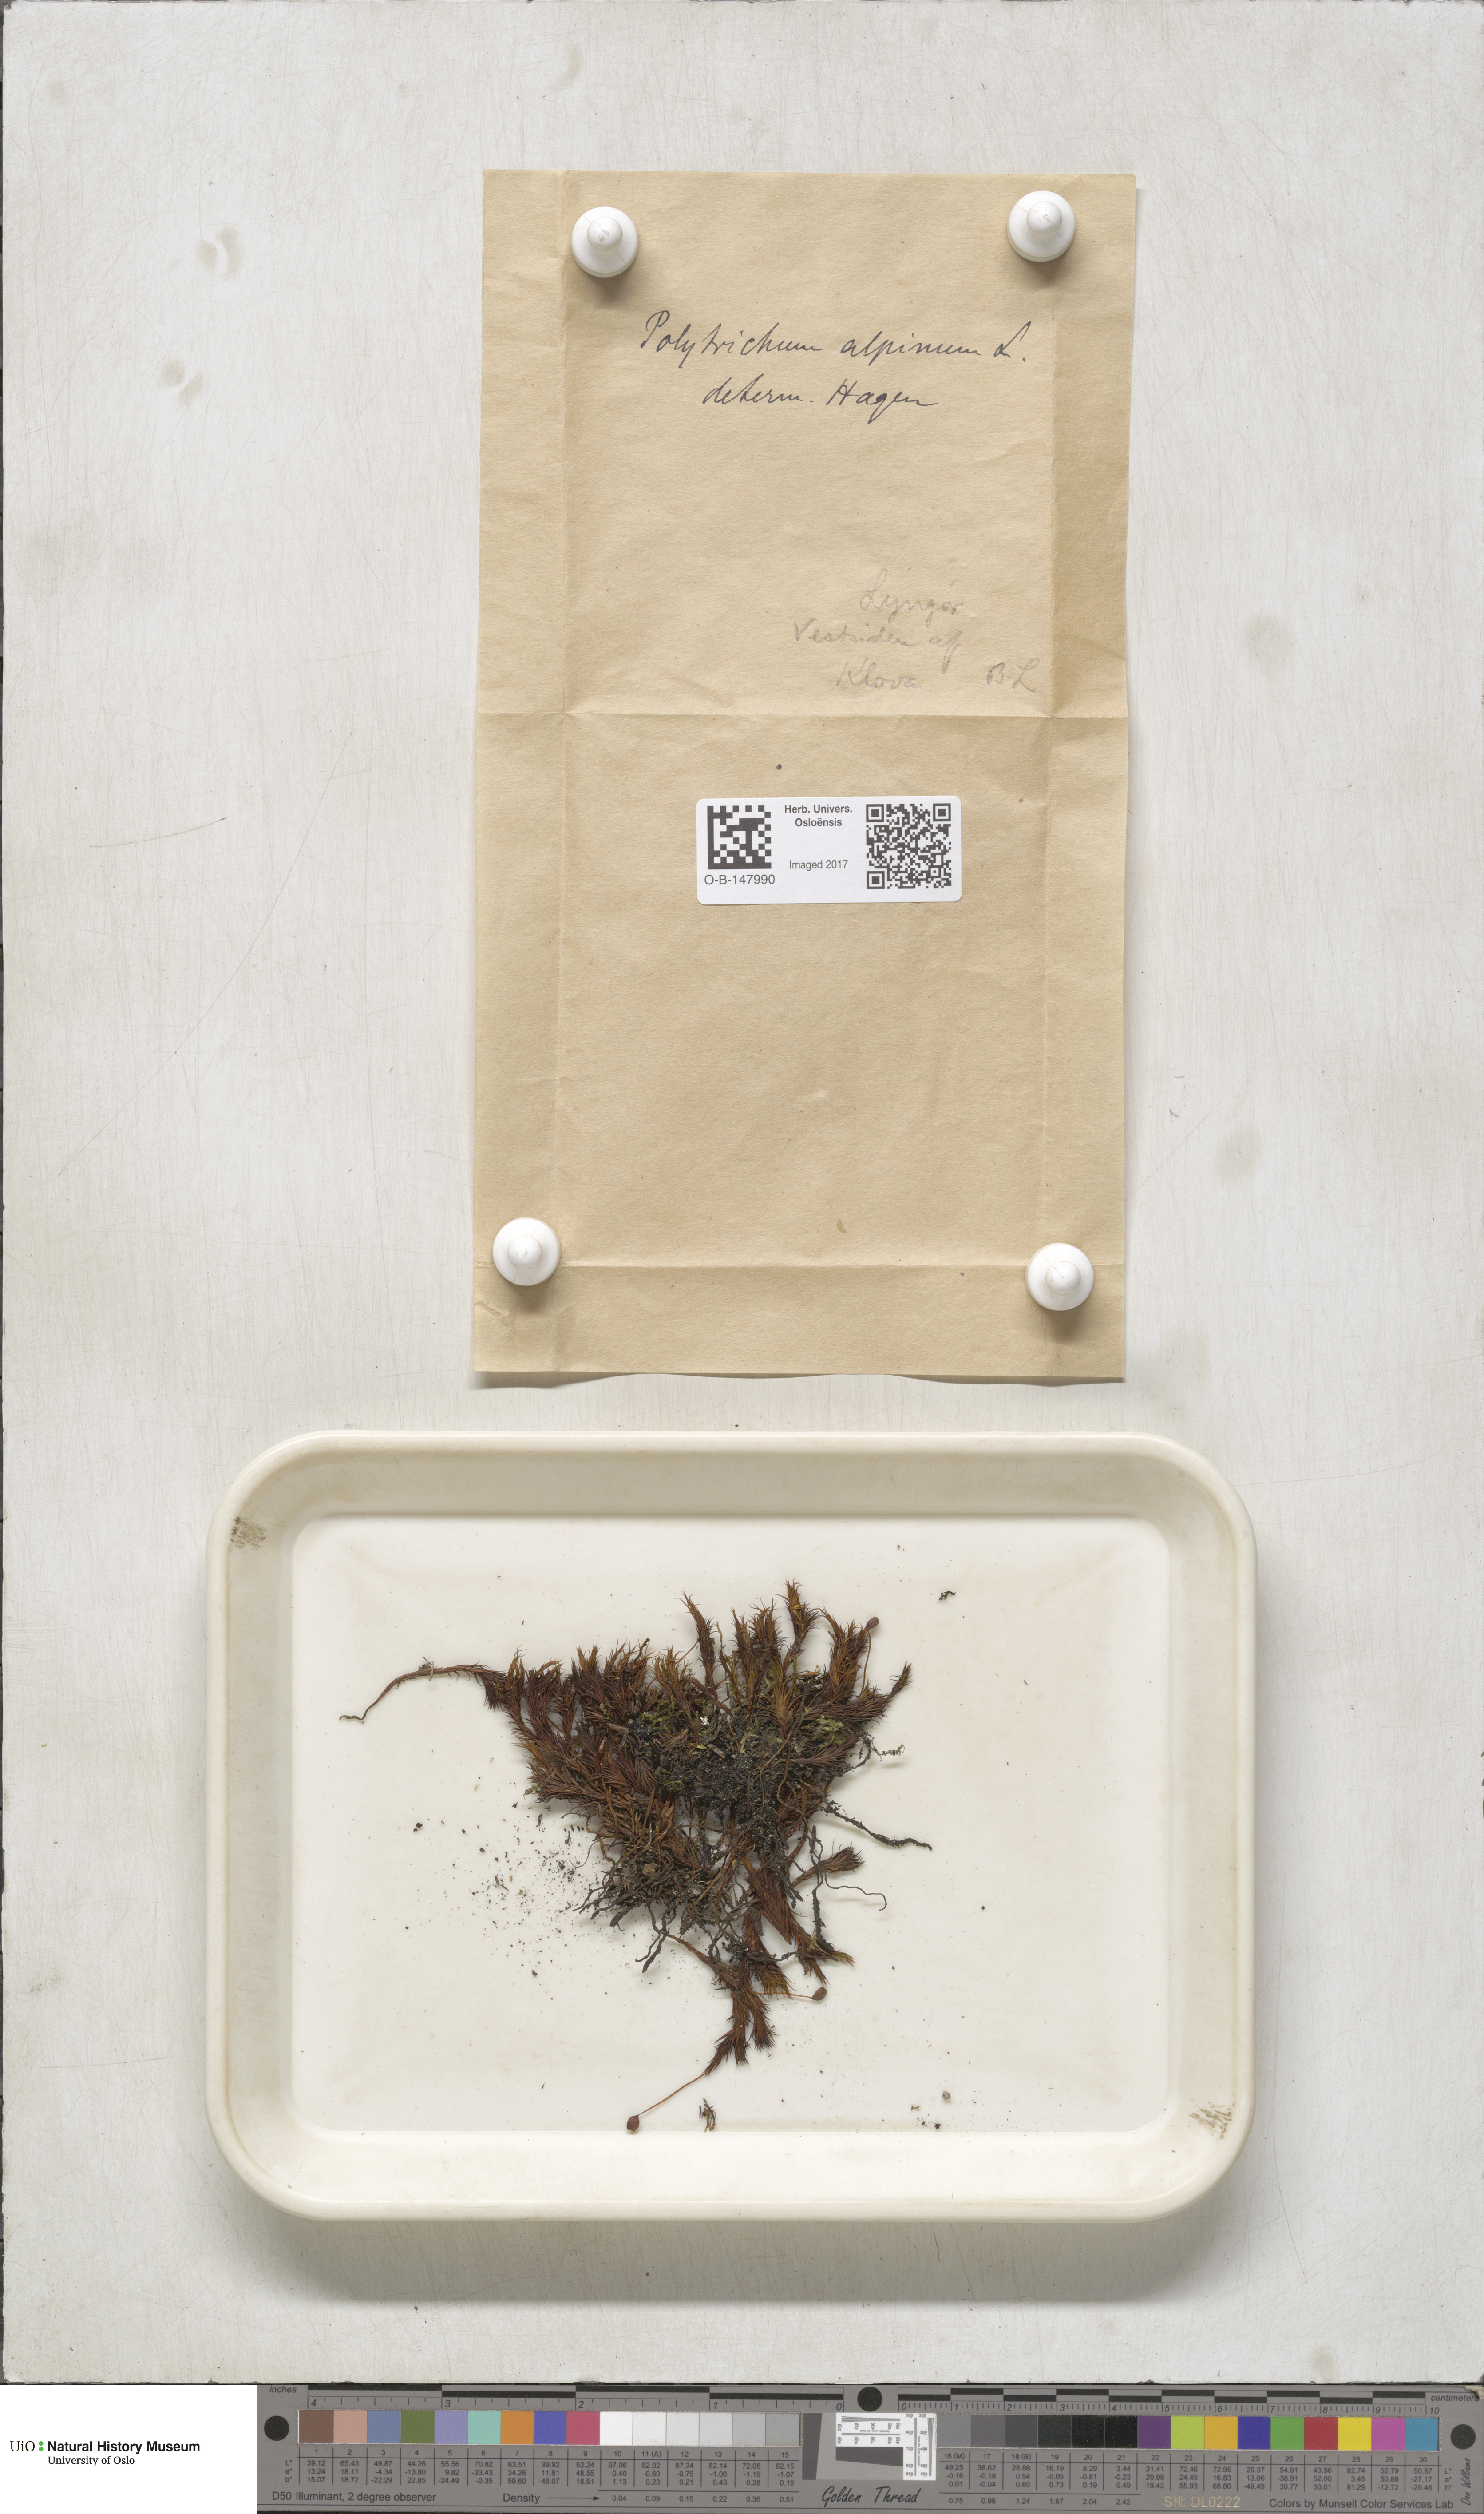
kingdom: Plantae
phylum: Bryophyta
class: Polytrichopsida
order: Polytrichales
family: Polytrichaceae
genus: Polytrichastrum
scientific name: Polytrichastrum alpinum
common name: Alpine haircap
